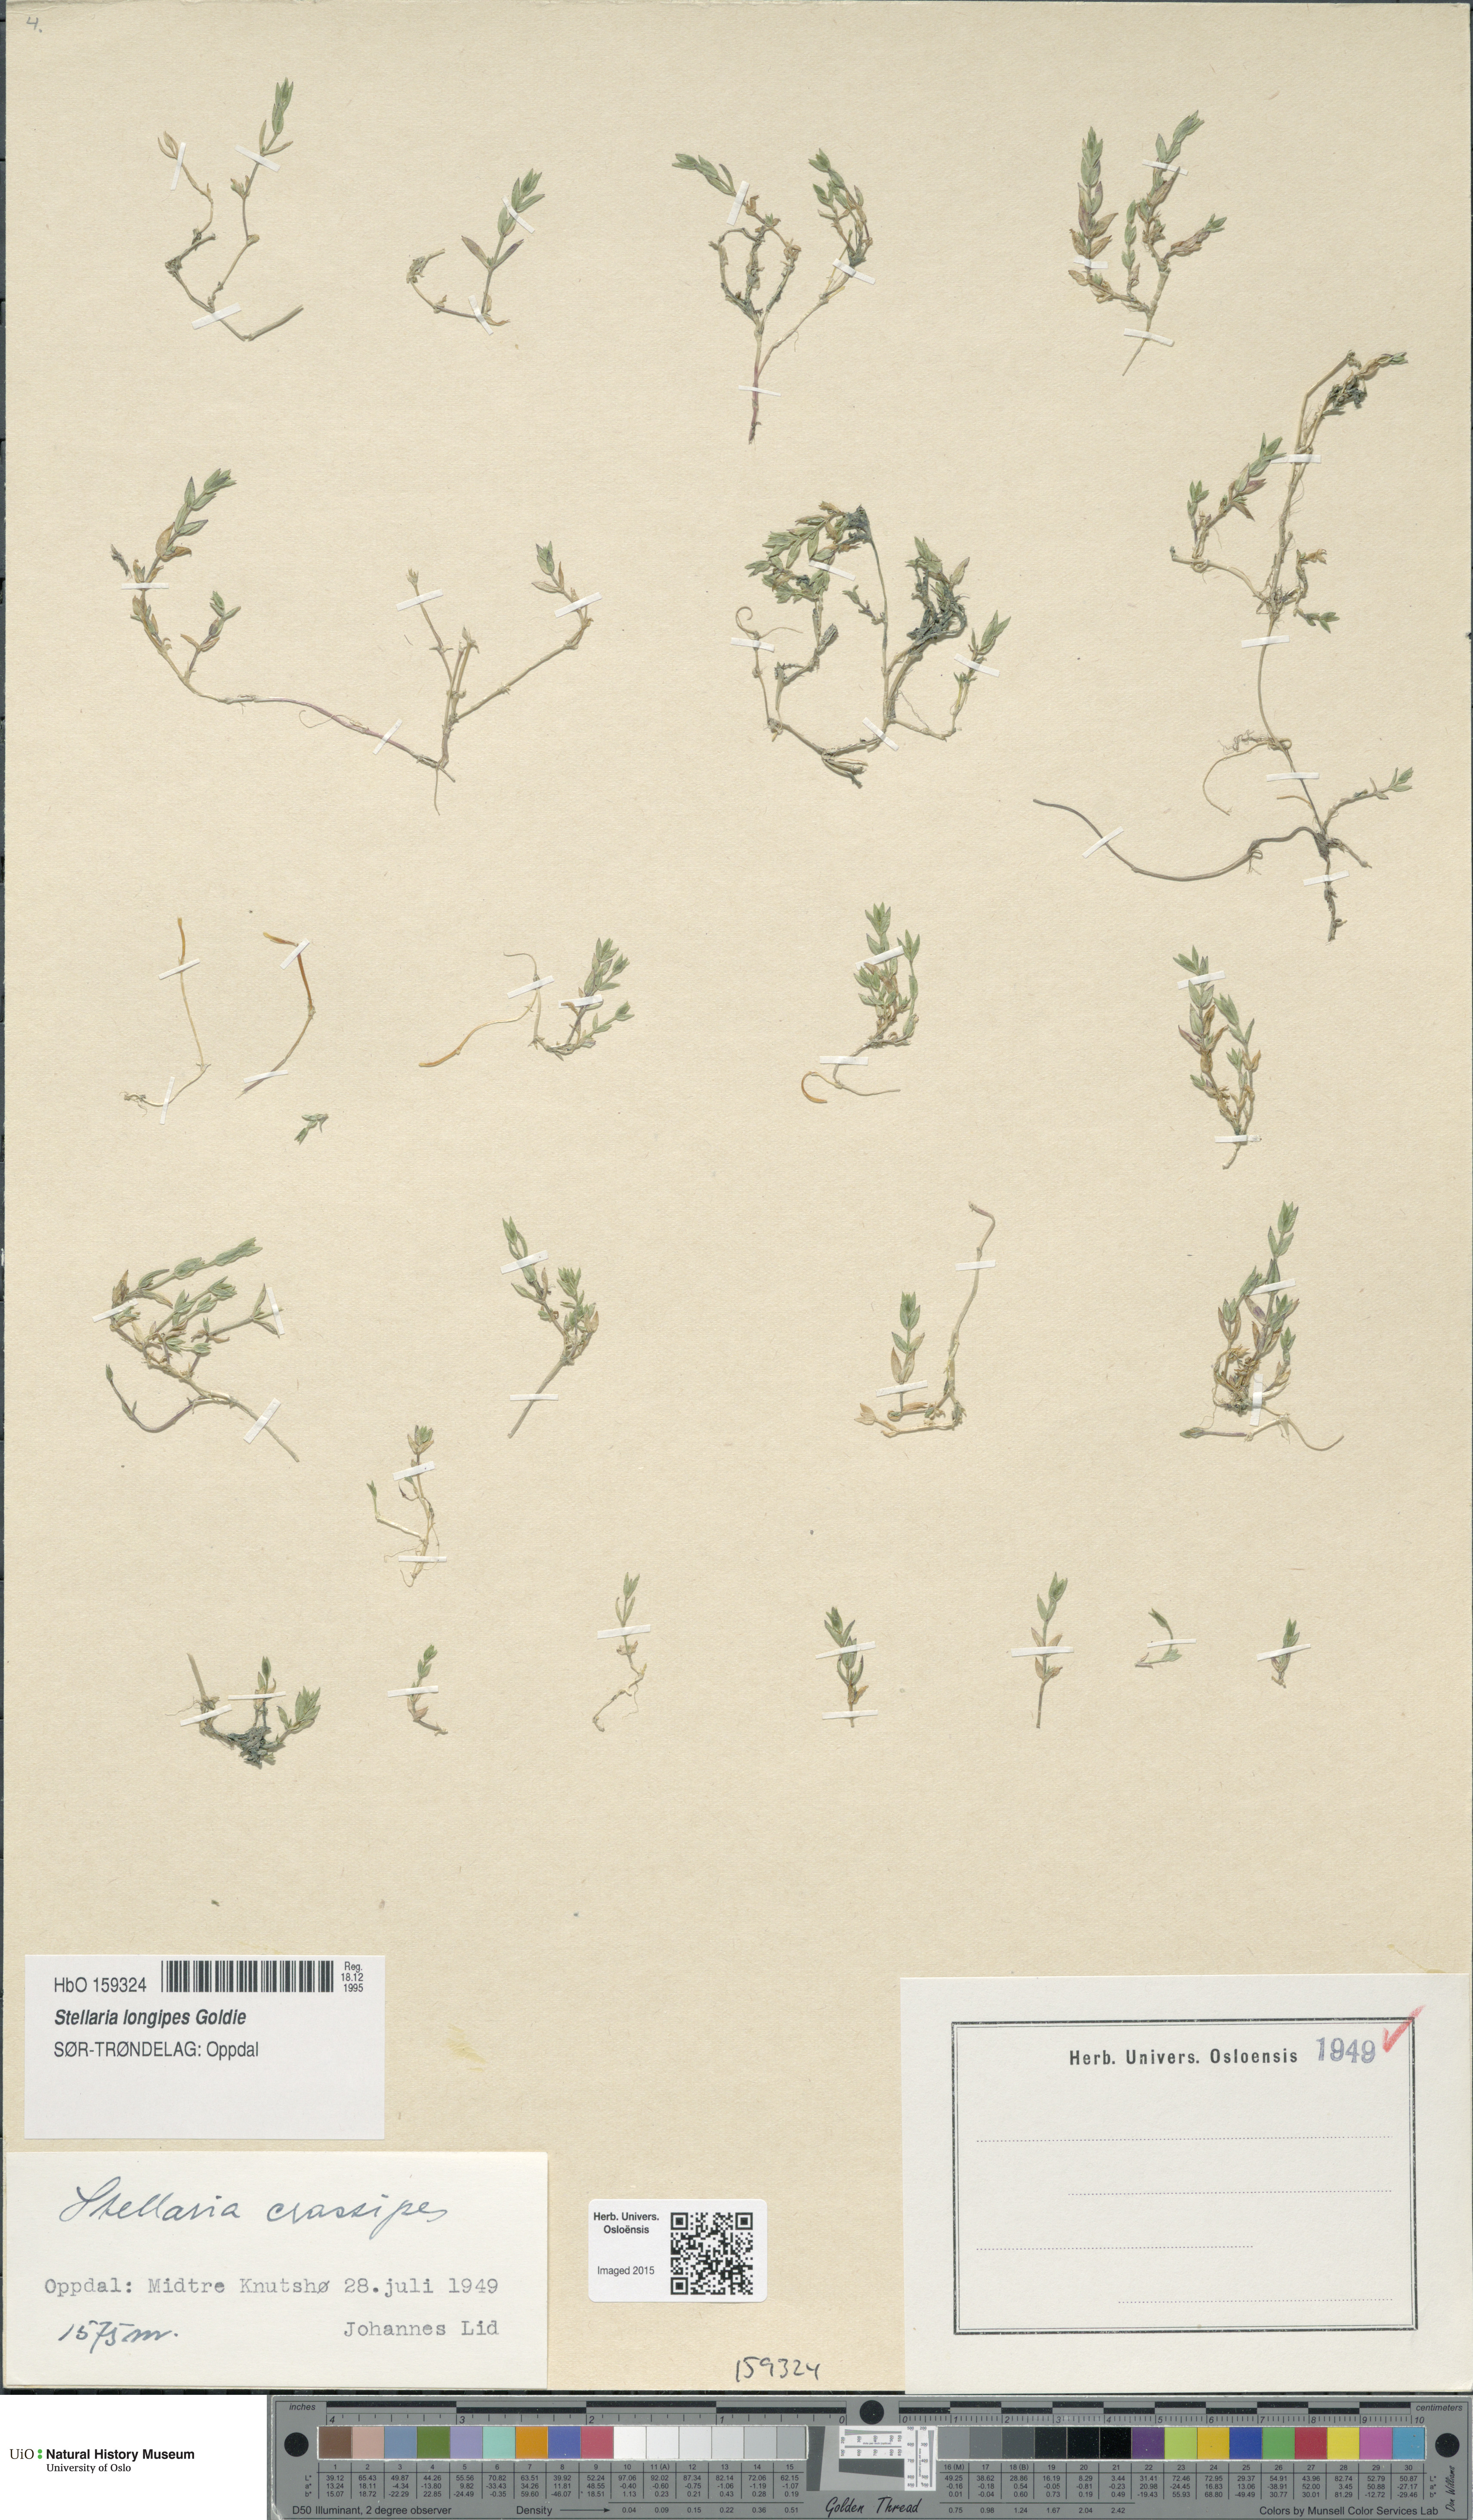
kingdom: Plantae
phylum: Tracheophyta
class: Magnoliopsida
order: Caryophyllales
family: Caryophyllaceae
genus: Stellaria
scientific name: Stellaria longipes
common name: Goldie's starwort
